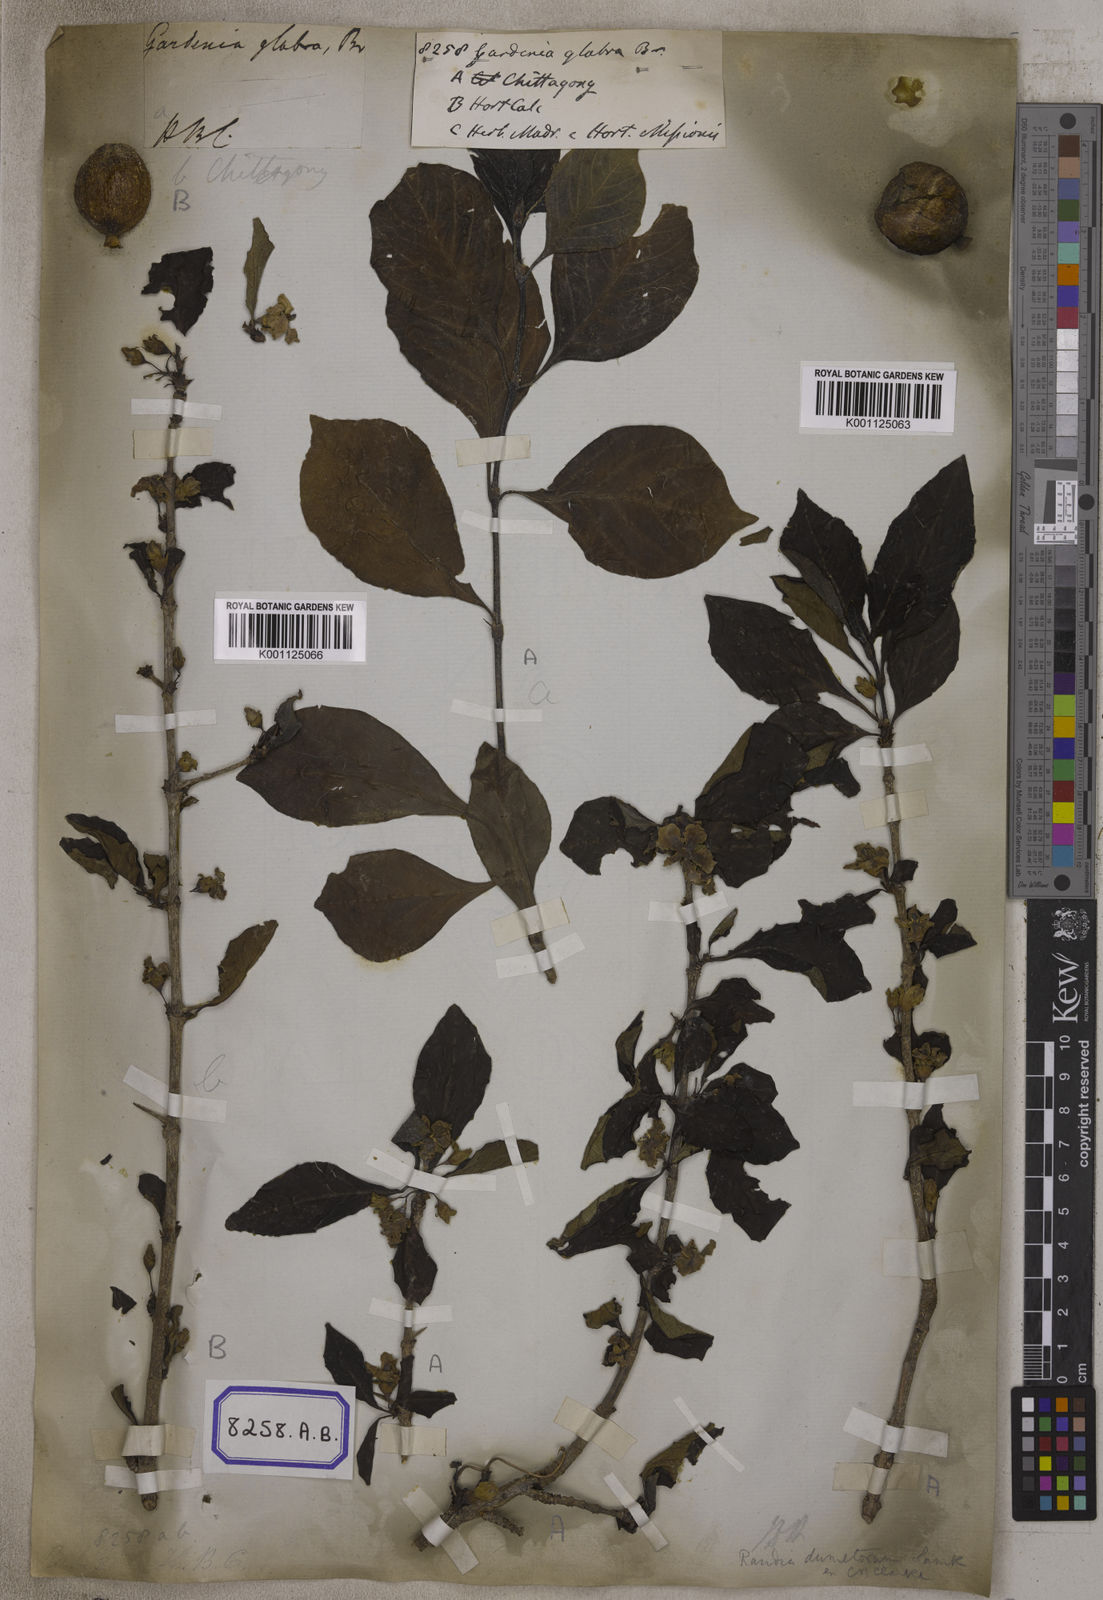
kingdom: Plantae
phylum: Tracheophyta
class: Magnoliopsida
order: Gentianales
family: Rubiaceae
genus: Gardenia
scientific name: Gardenia
